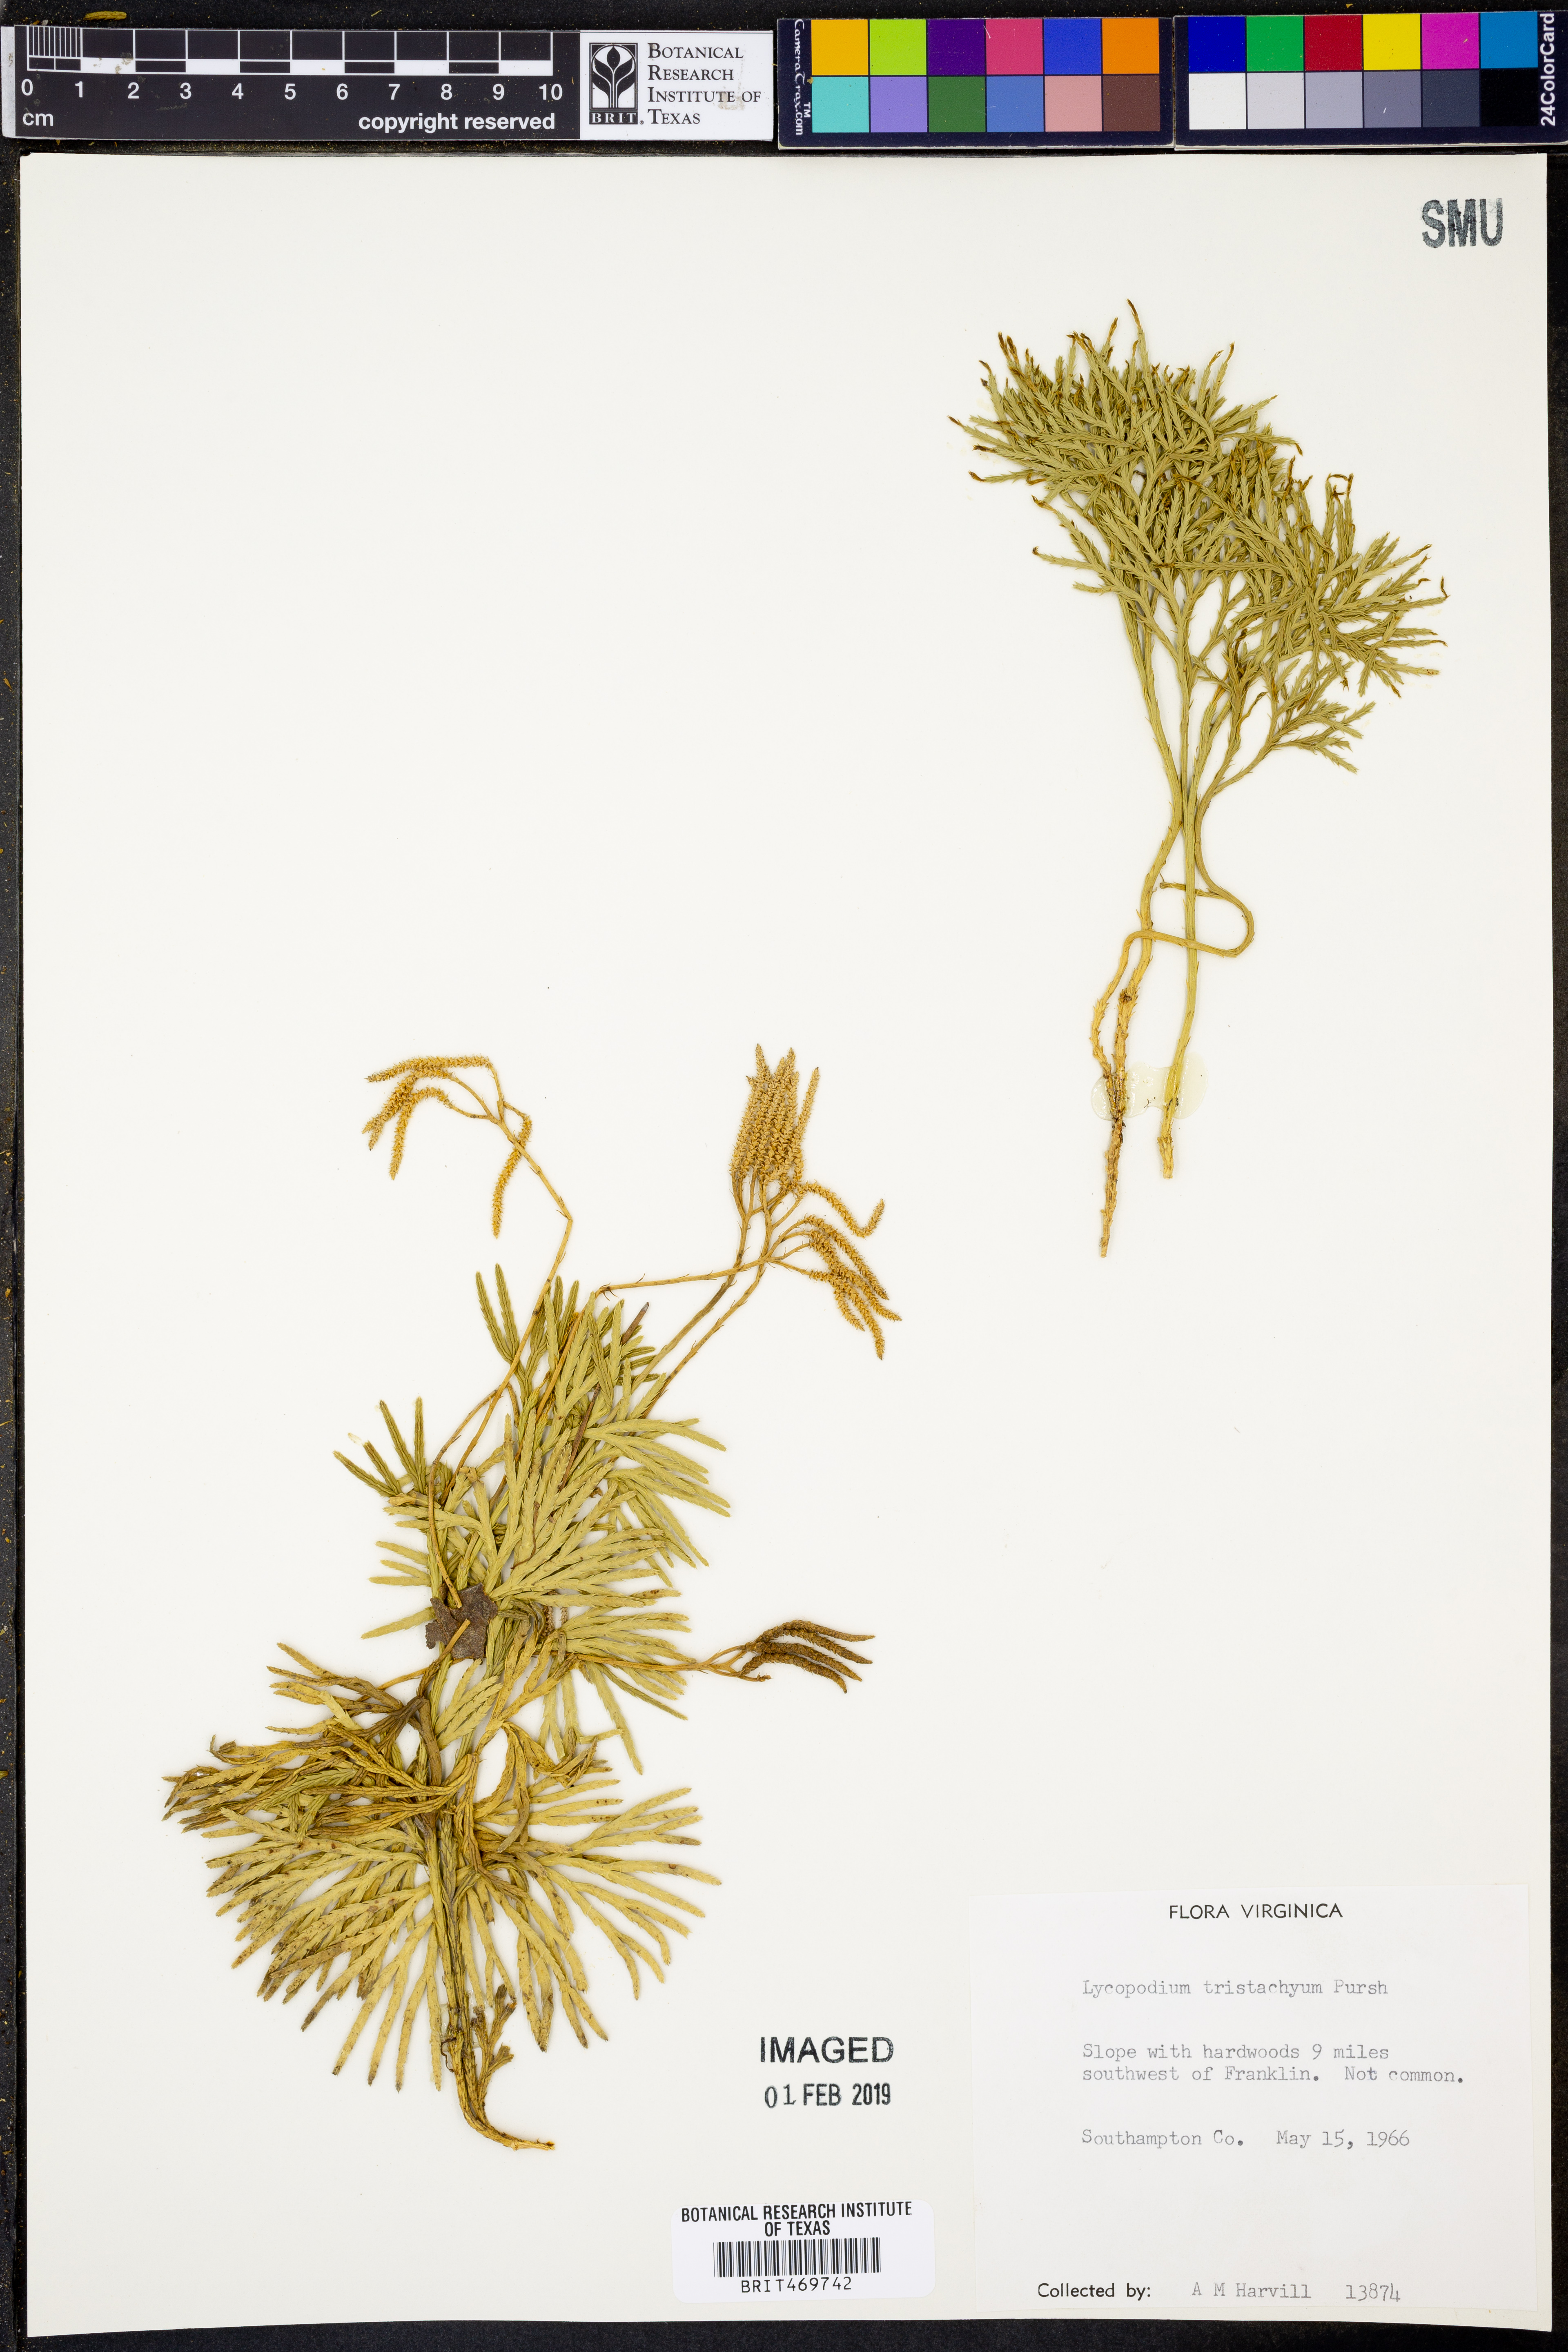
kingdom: Plantae
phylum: Tracheophyta
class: Lycopodiopsida
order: Lycopodiales
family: Lycopodiaceae
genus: Diphasiastrum
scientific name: Diphasiastrum tristachyum
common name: Blue ground-cedar
